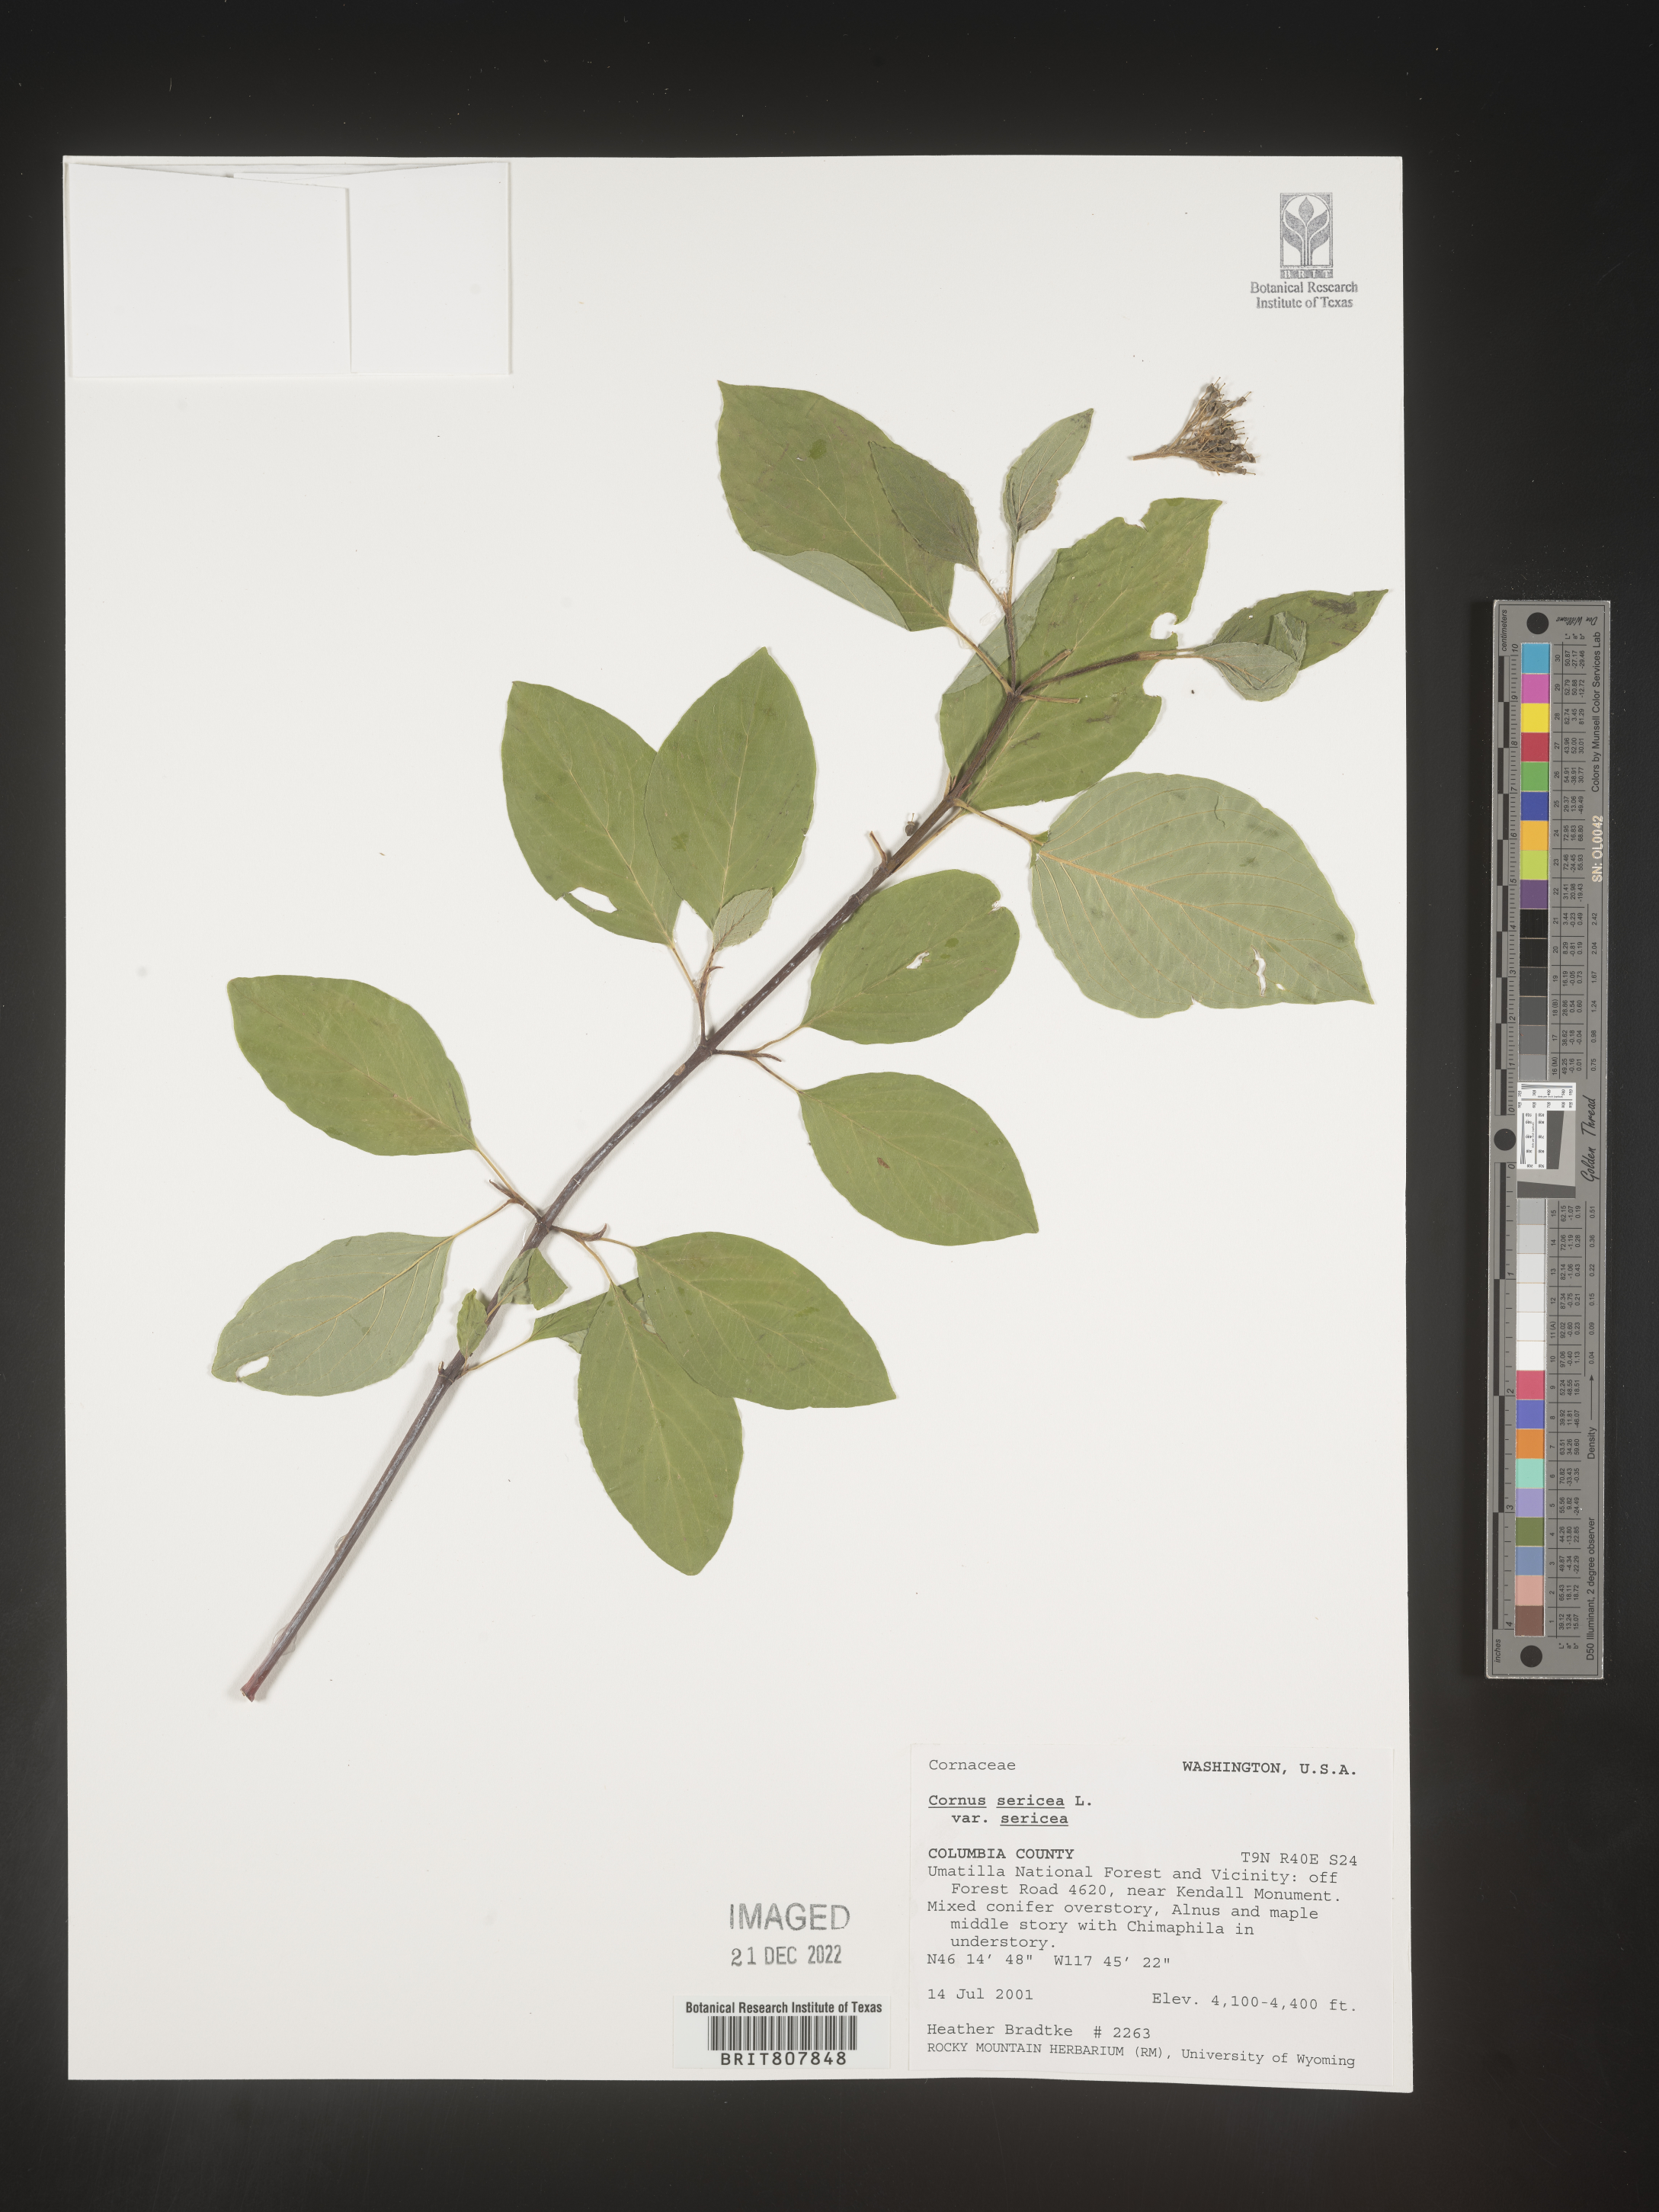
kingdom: Plantae
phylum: Tracheophyta
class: Magnoliopsida
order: Cornales
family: Cornaceae
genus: Cornus
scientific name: Cornus
